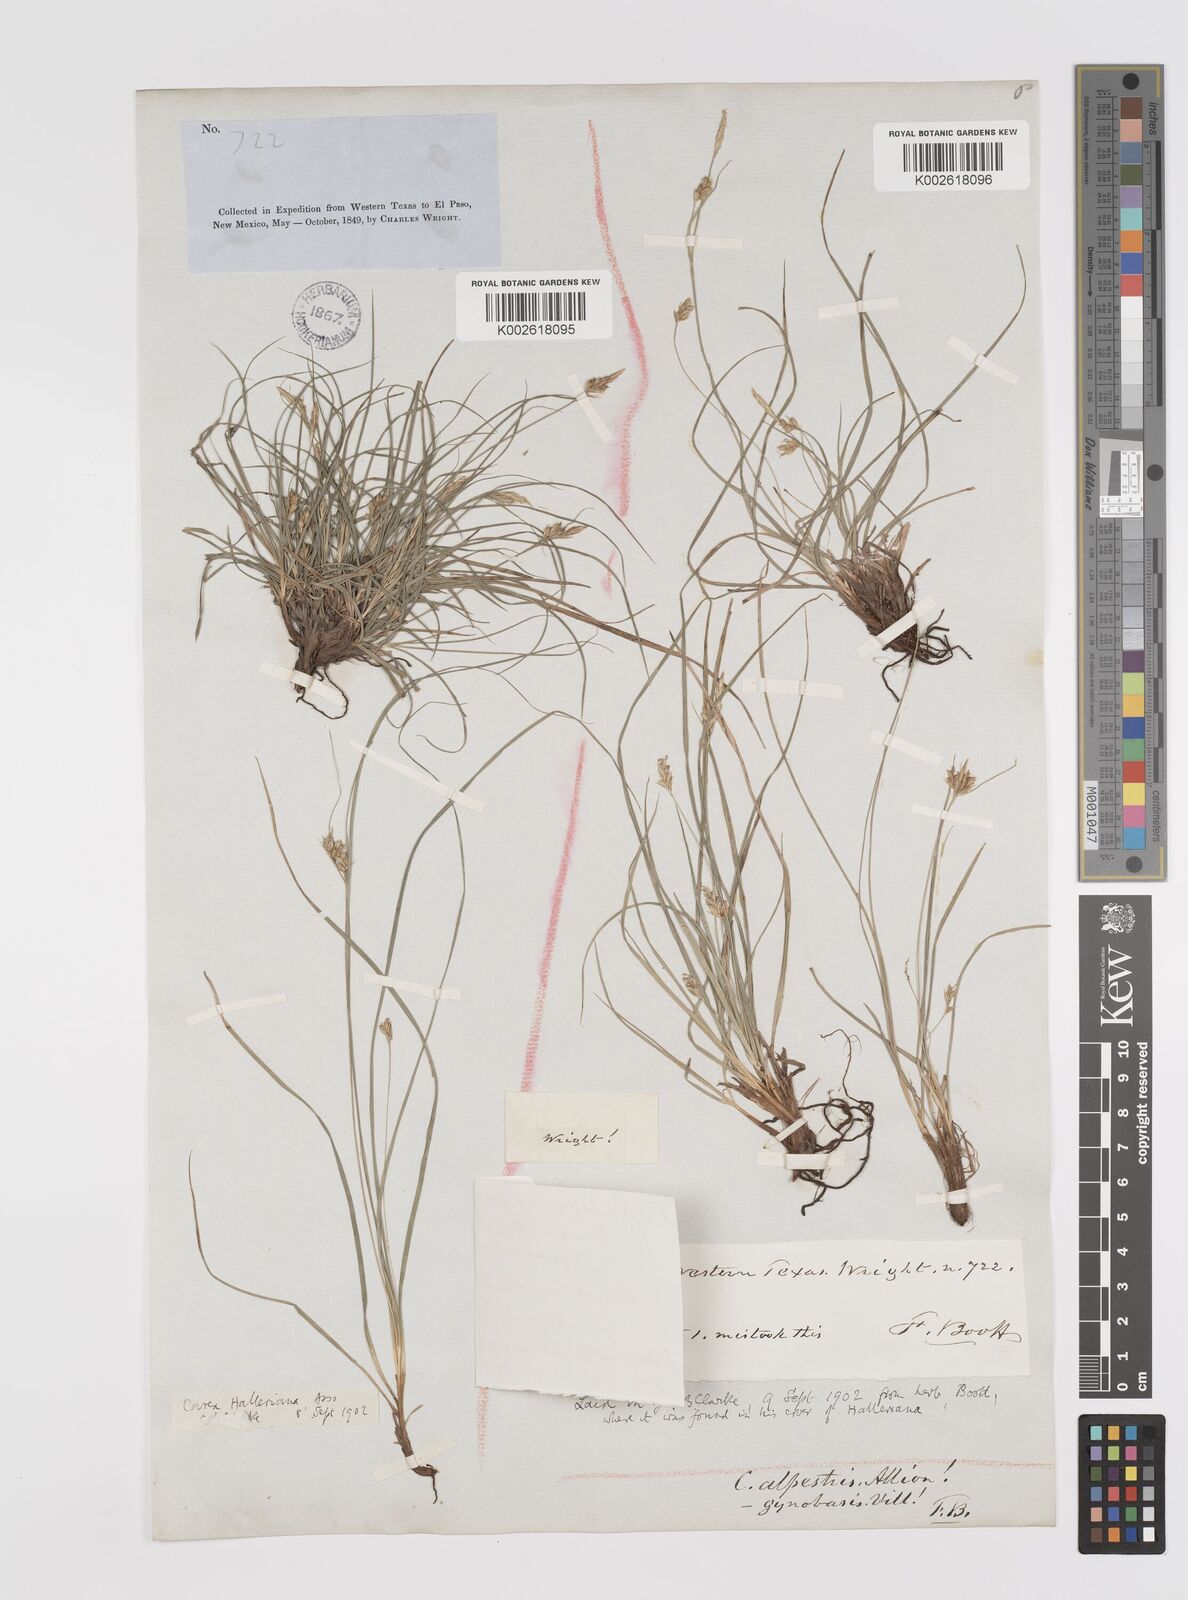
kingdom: Plantae
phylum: Tracheophyta
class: Liliopsida
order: Poales
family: Cyperaceae
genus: Carex
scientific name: Carex planostachys
